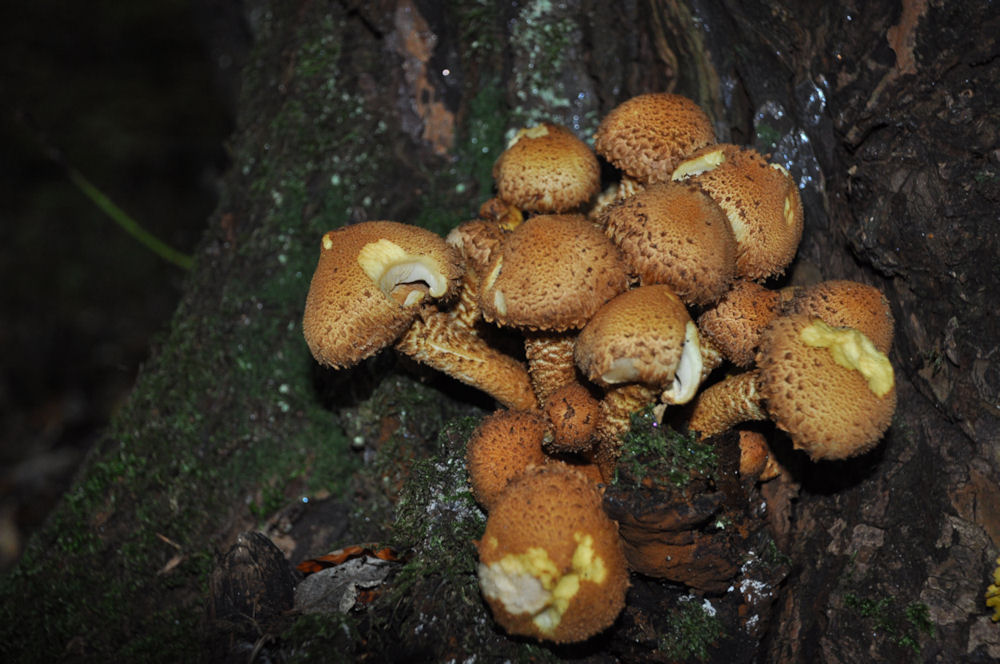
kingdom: Fungi
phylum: Basidiomycota
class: Agaricomycetes
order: Agaricales
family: Strophariaceae
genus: Pholiota
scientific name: Pholiota squarrosa
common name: krumskællet skælhat
